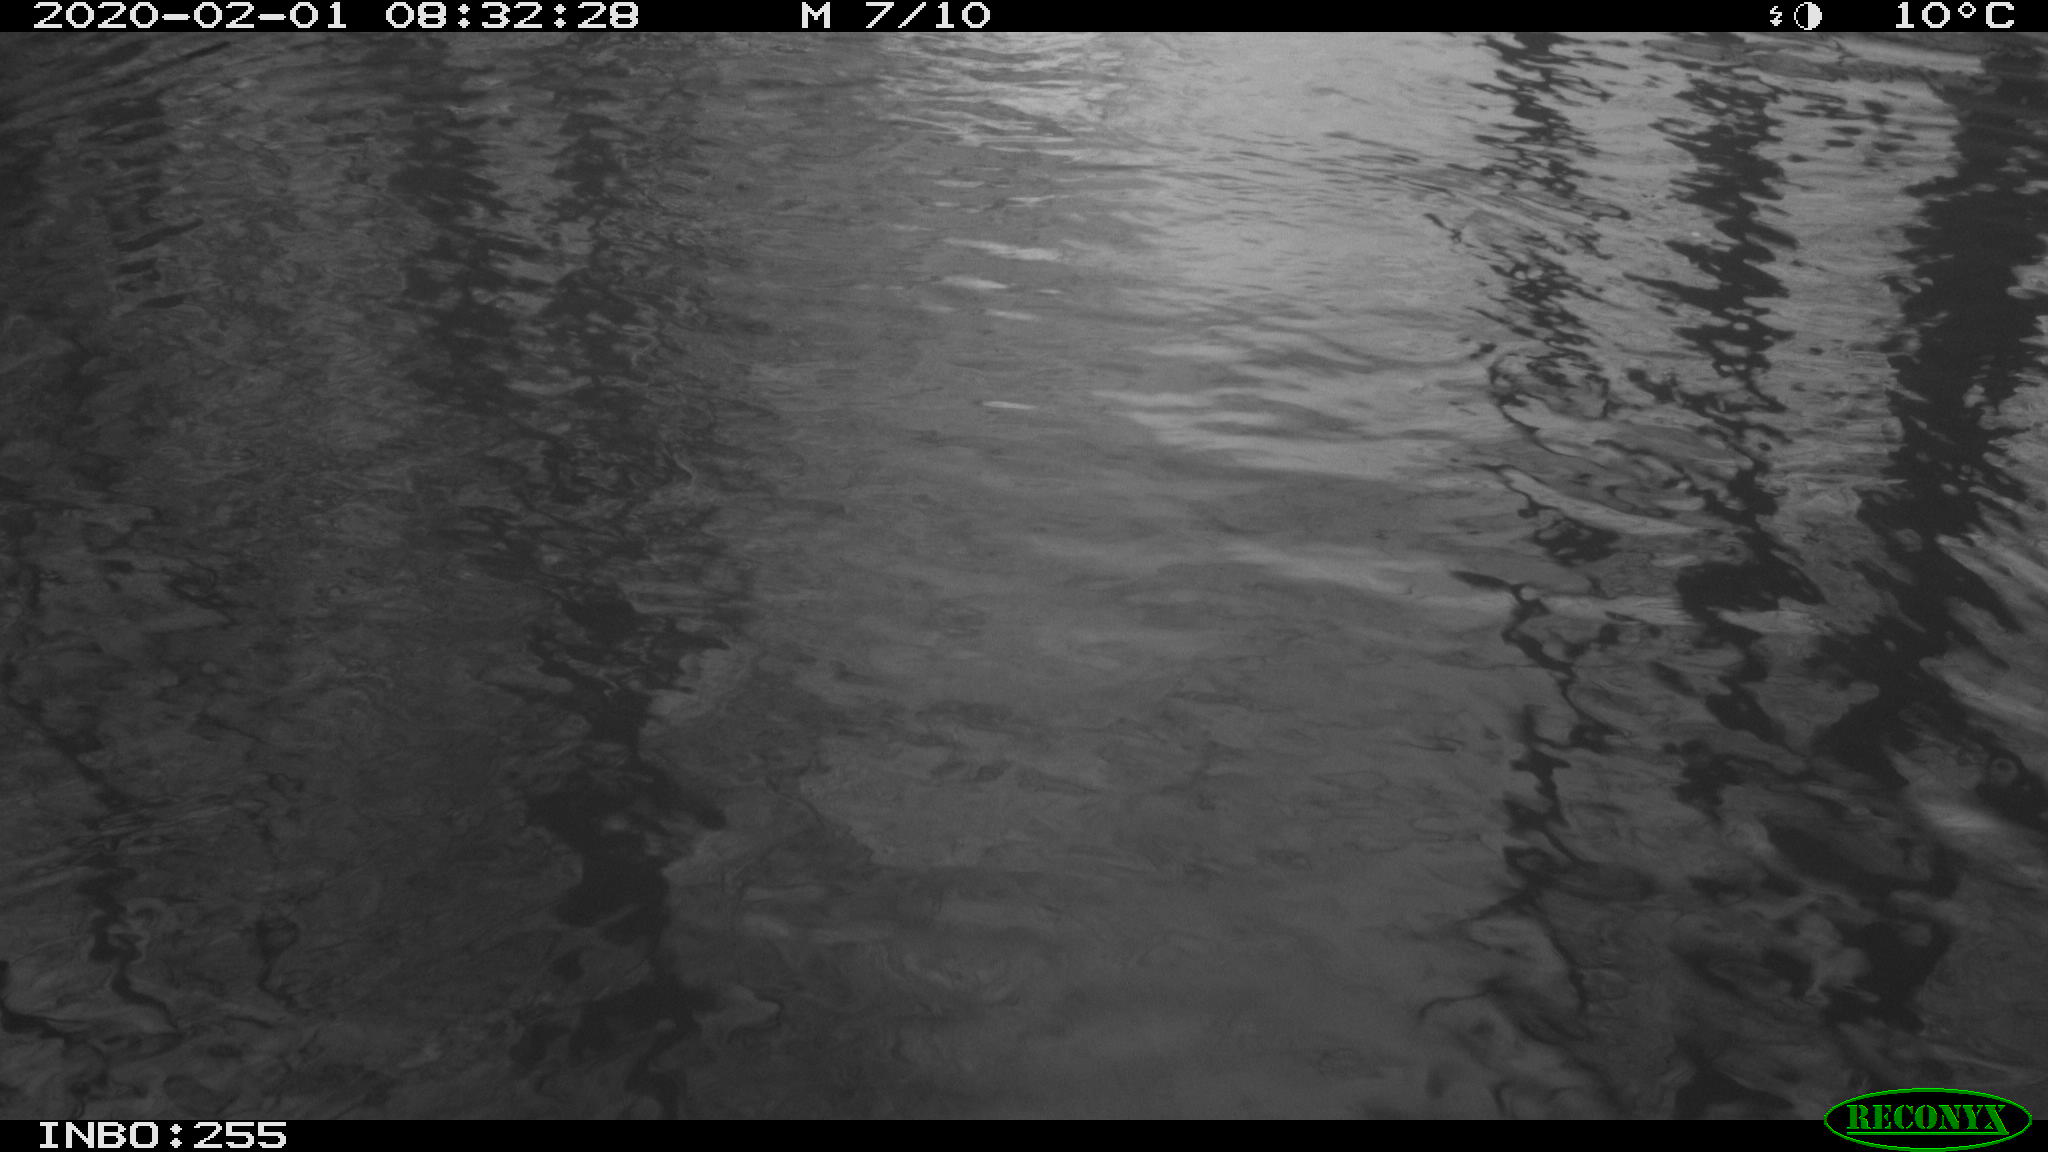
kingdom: Animalia
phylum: Chordata
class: Aves
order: Anseriformes
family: Anatidae
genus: Anas
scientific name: Anas platyrhynchos
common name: Mallard
